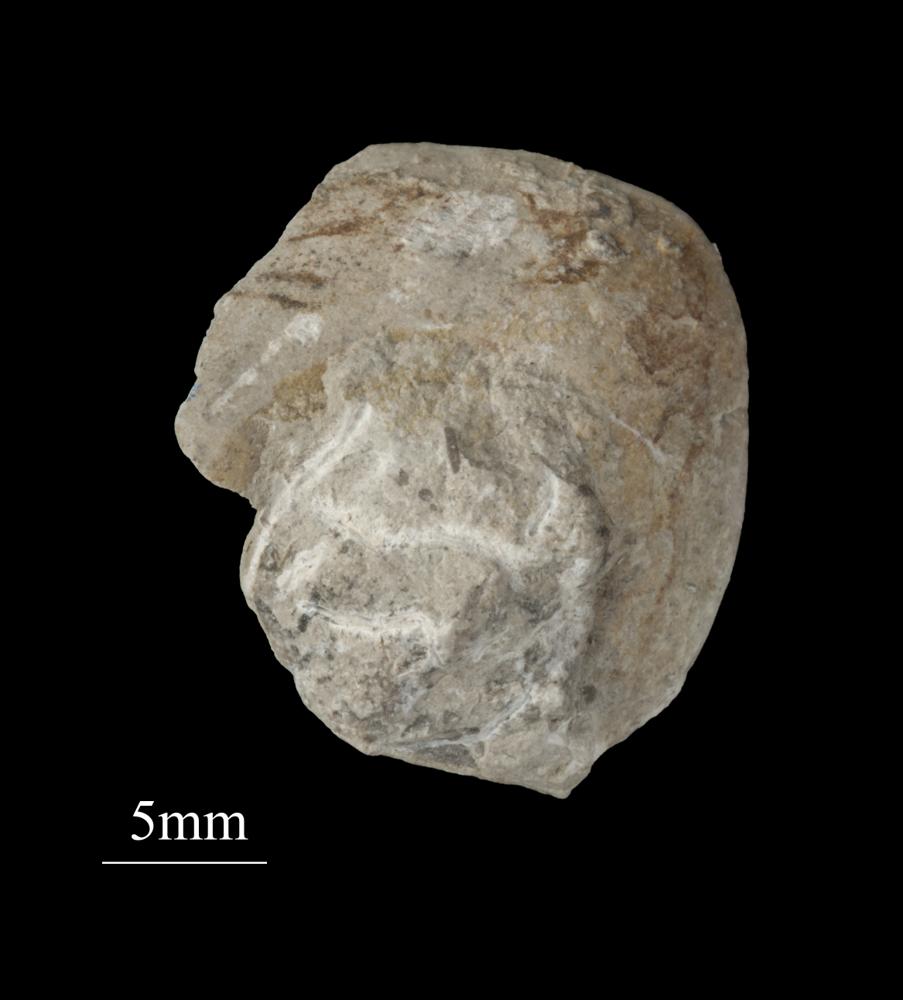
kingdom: Animalia
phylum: Mollusca
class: Gastropoda
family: Bellerophontidae
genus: Bellerophon
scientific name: Bellerophon
